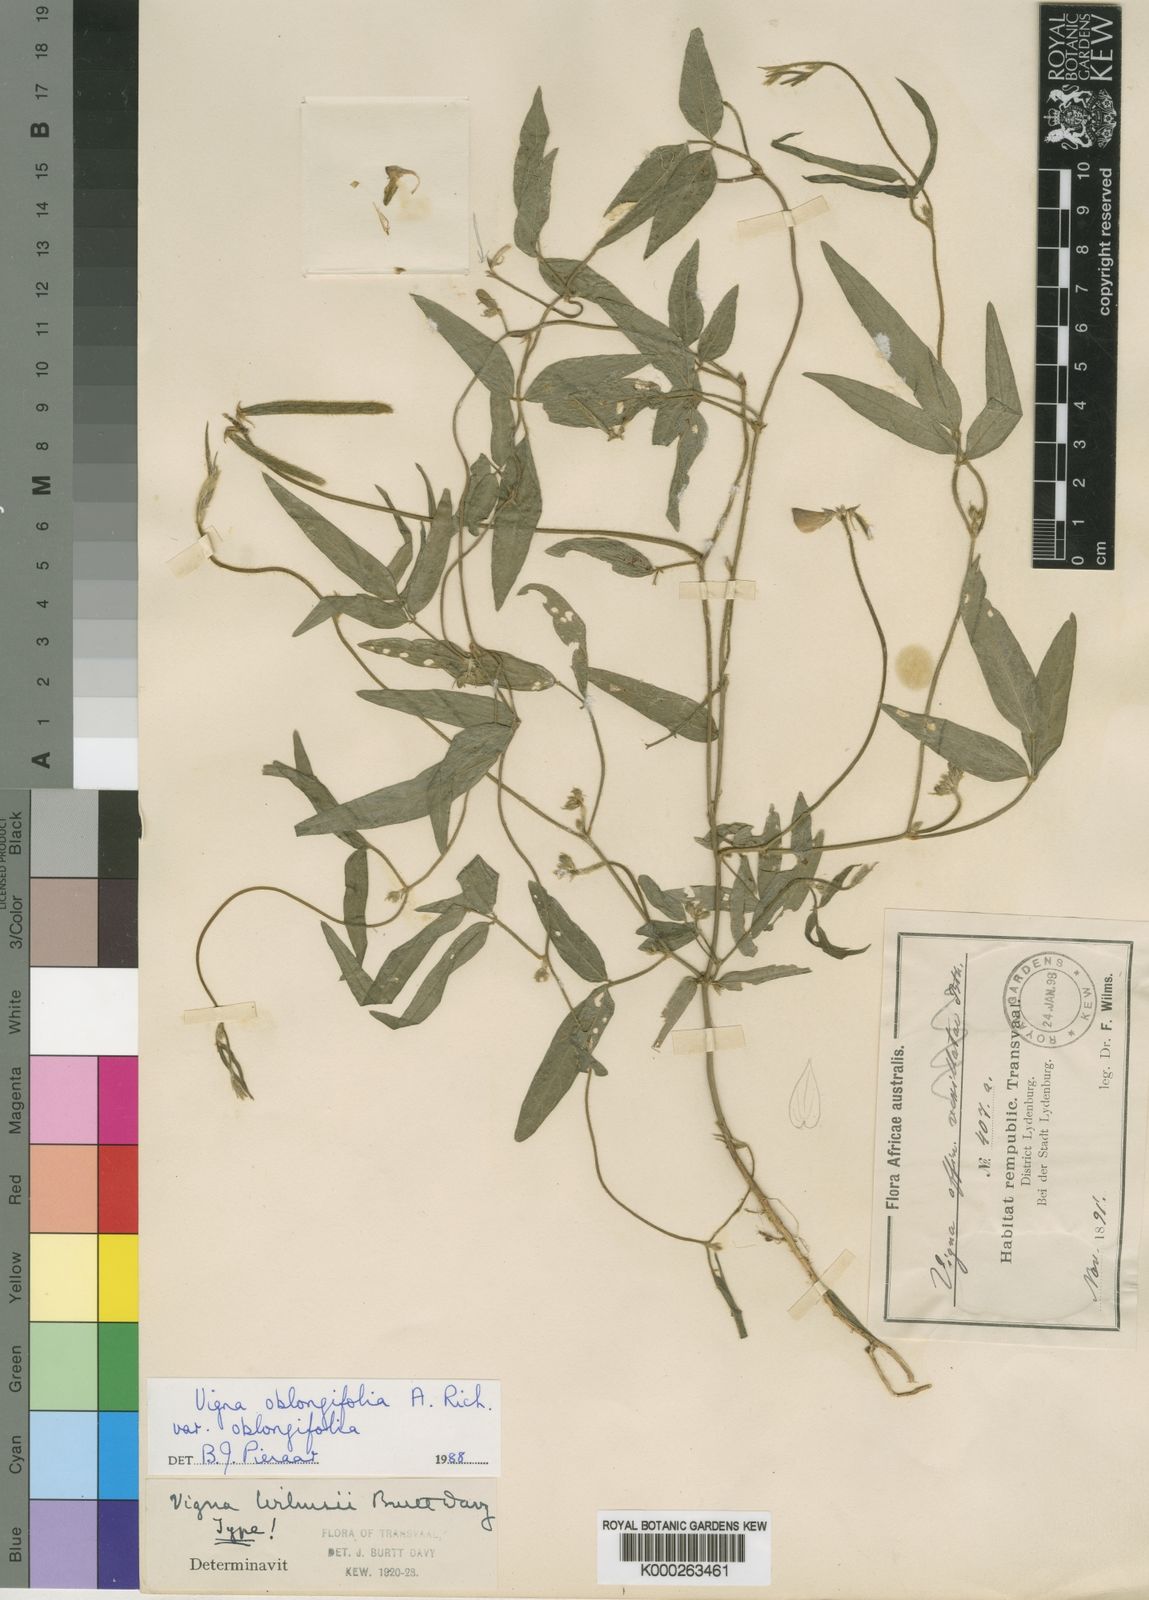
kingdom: Plantae
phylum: Tracheophyta
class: Magnoliopsida
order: Fabales
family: Fabaceae
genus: Vigna
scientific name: Vigna oblongifolia
